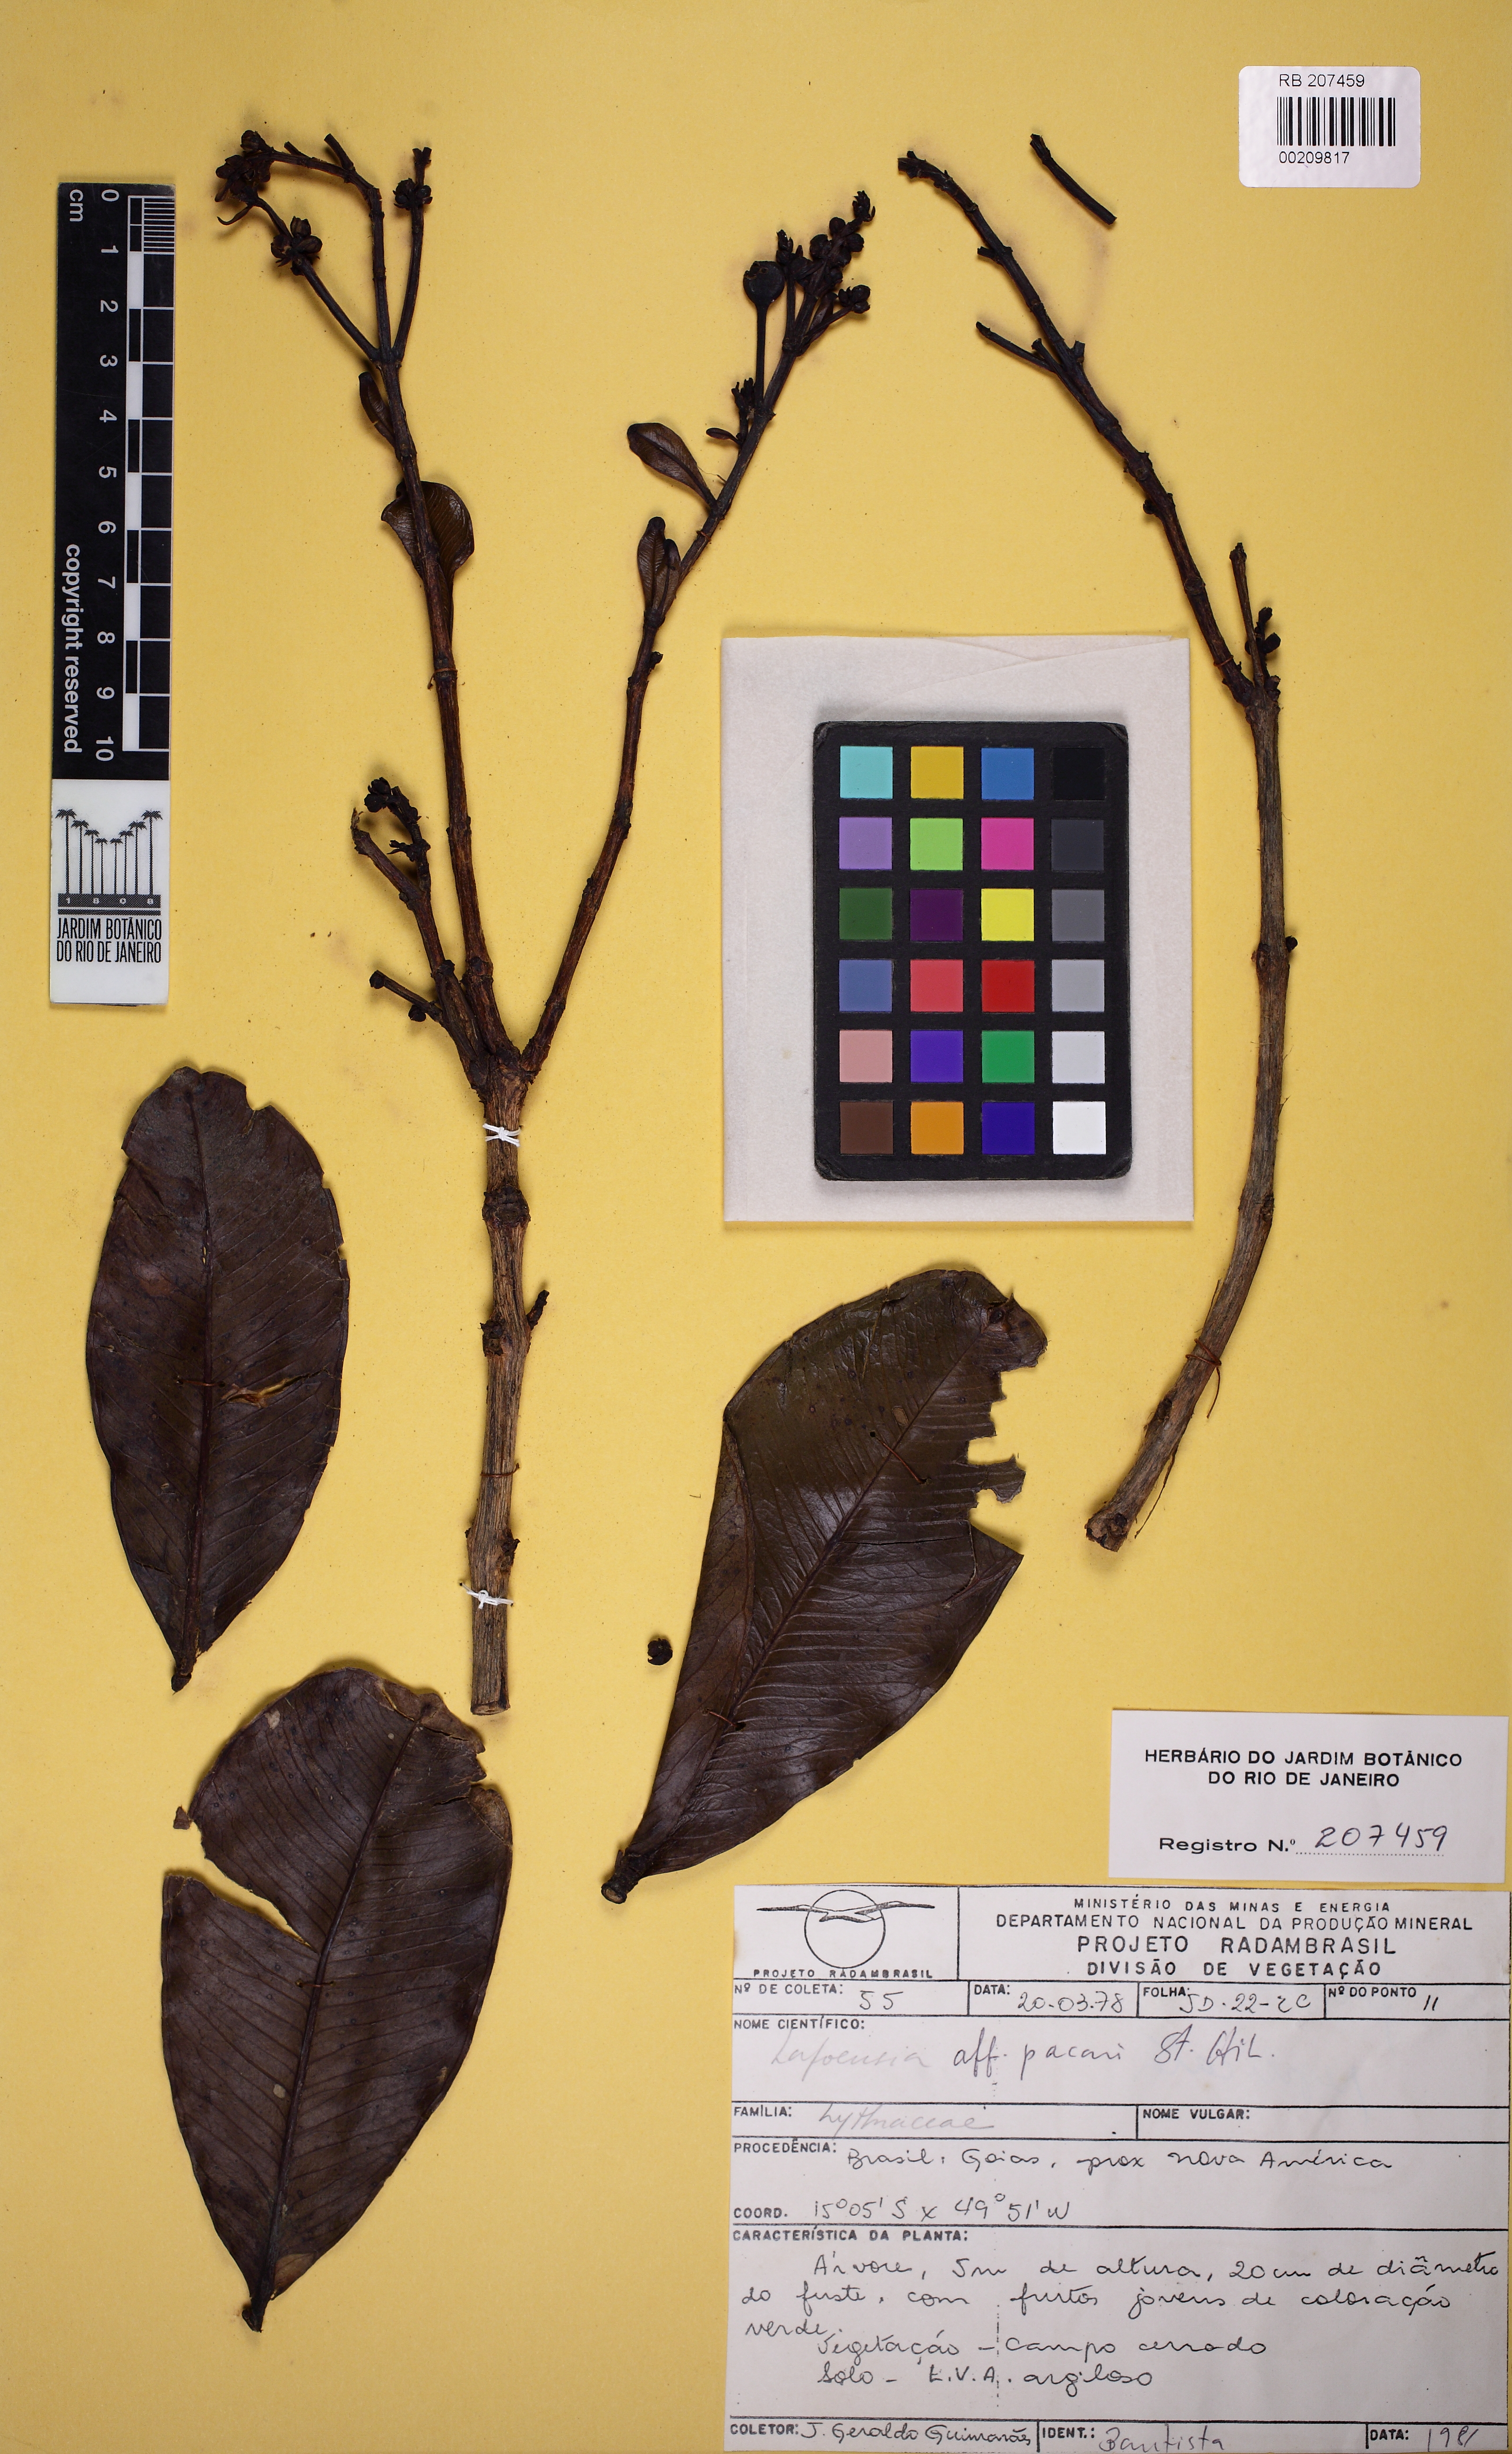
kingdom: Plantae
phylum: Tracheophyta
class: Magnoliopsida
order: Myrtales
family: Lythraceae
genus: Lafoensia
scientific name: Lafoensia pacari
